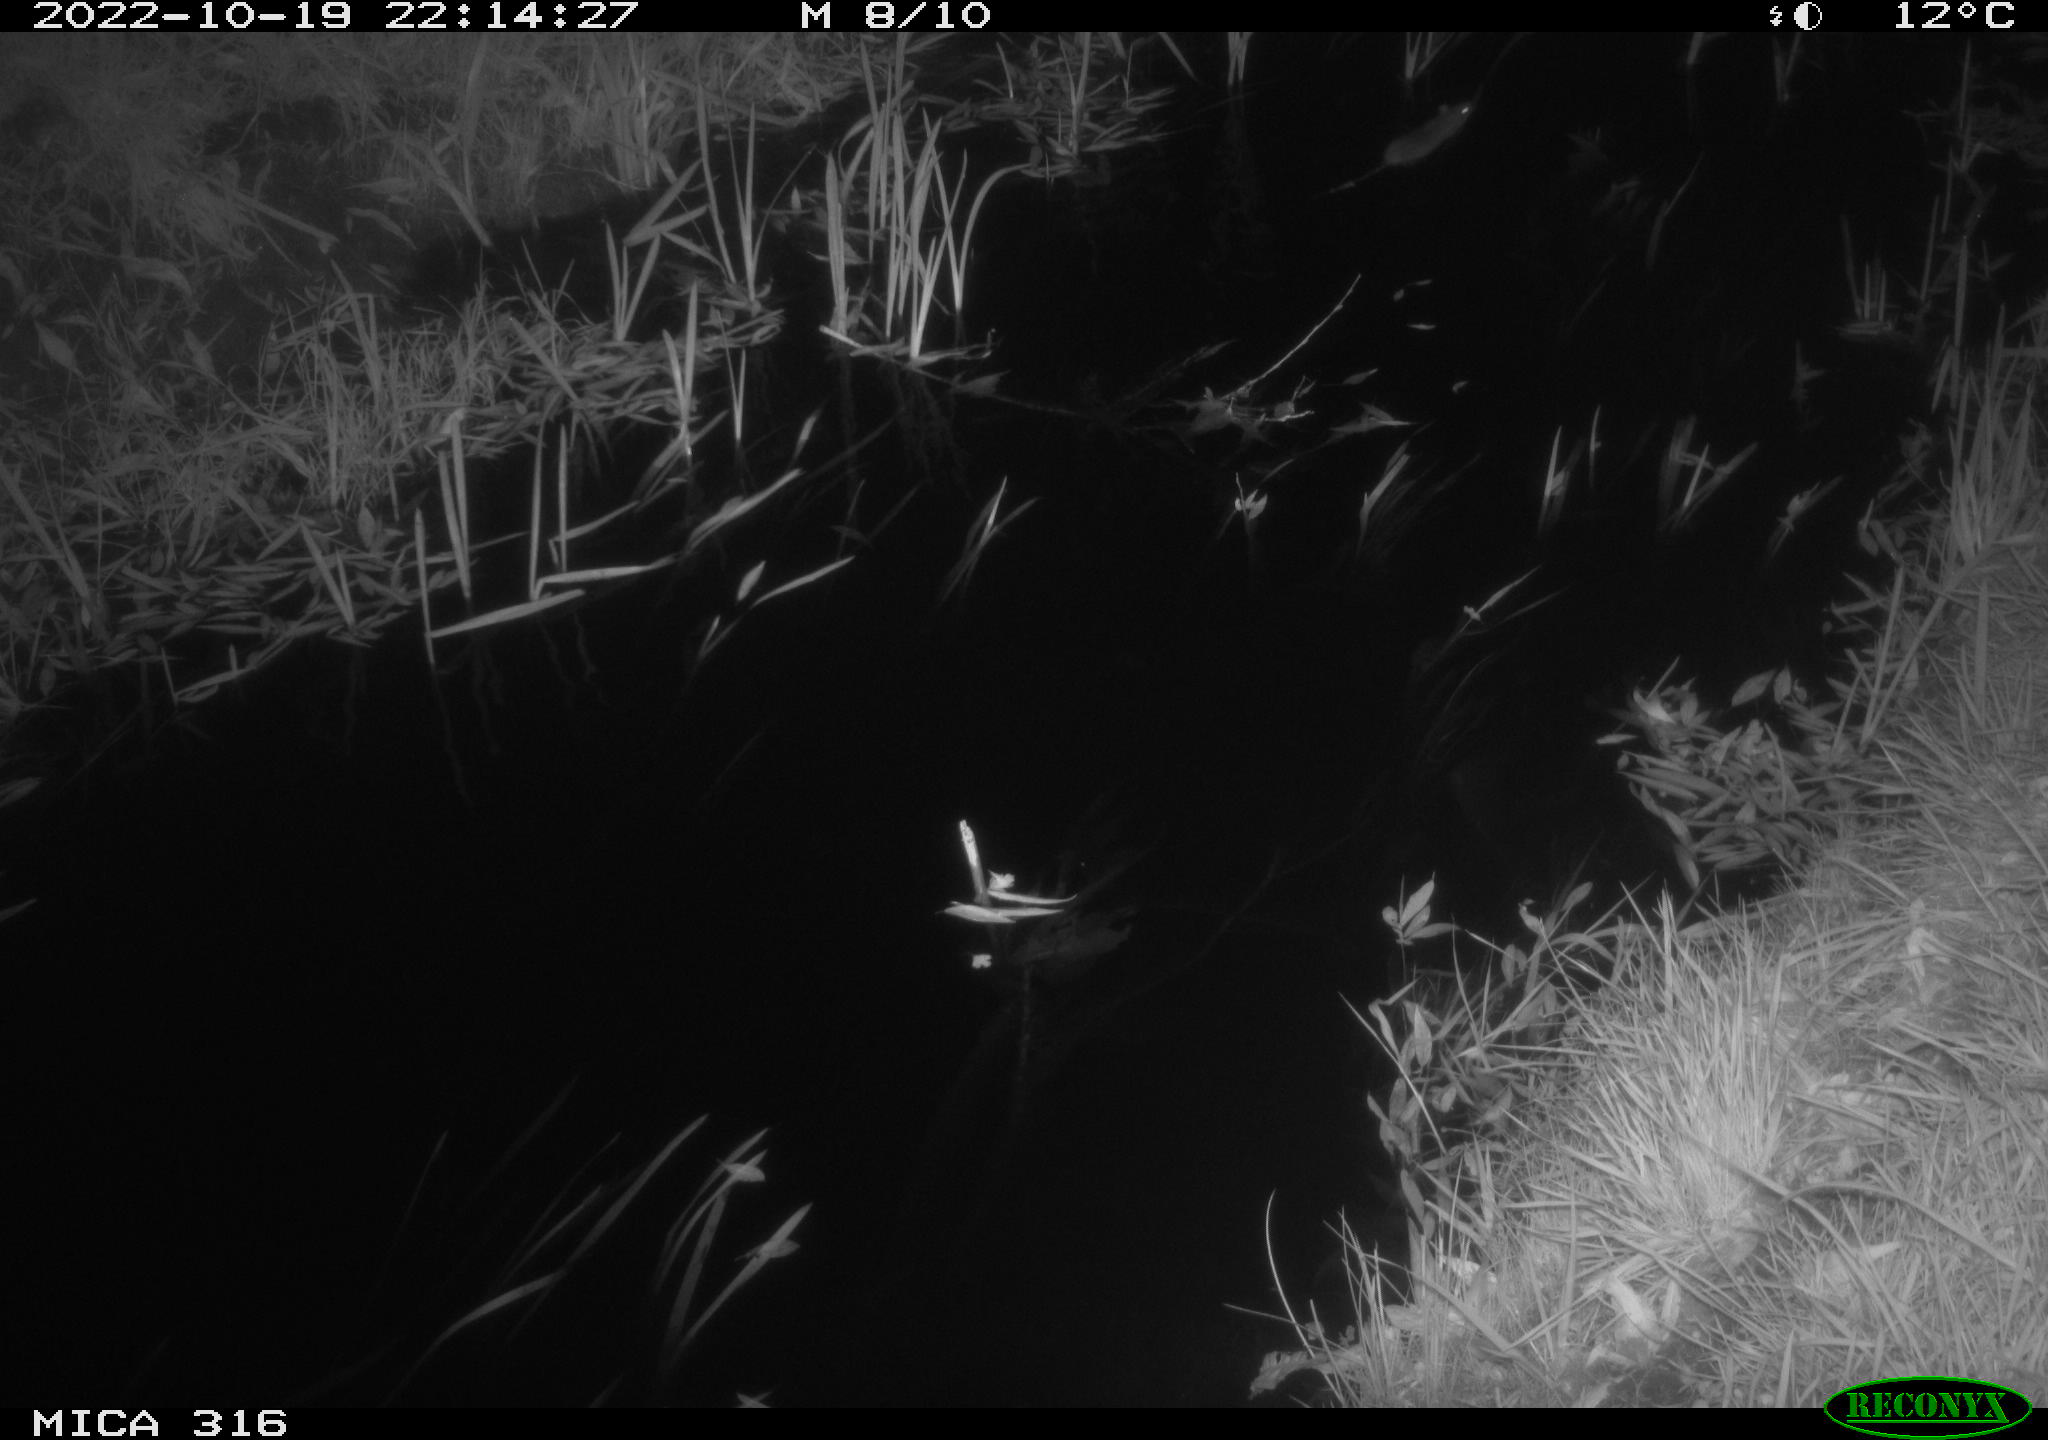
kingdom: Animalia
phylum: Chordata
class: Mammalia
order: Rodentia
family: Muridae
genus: Rattus
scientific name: Rattus norvegicus
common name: Brown rat
